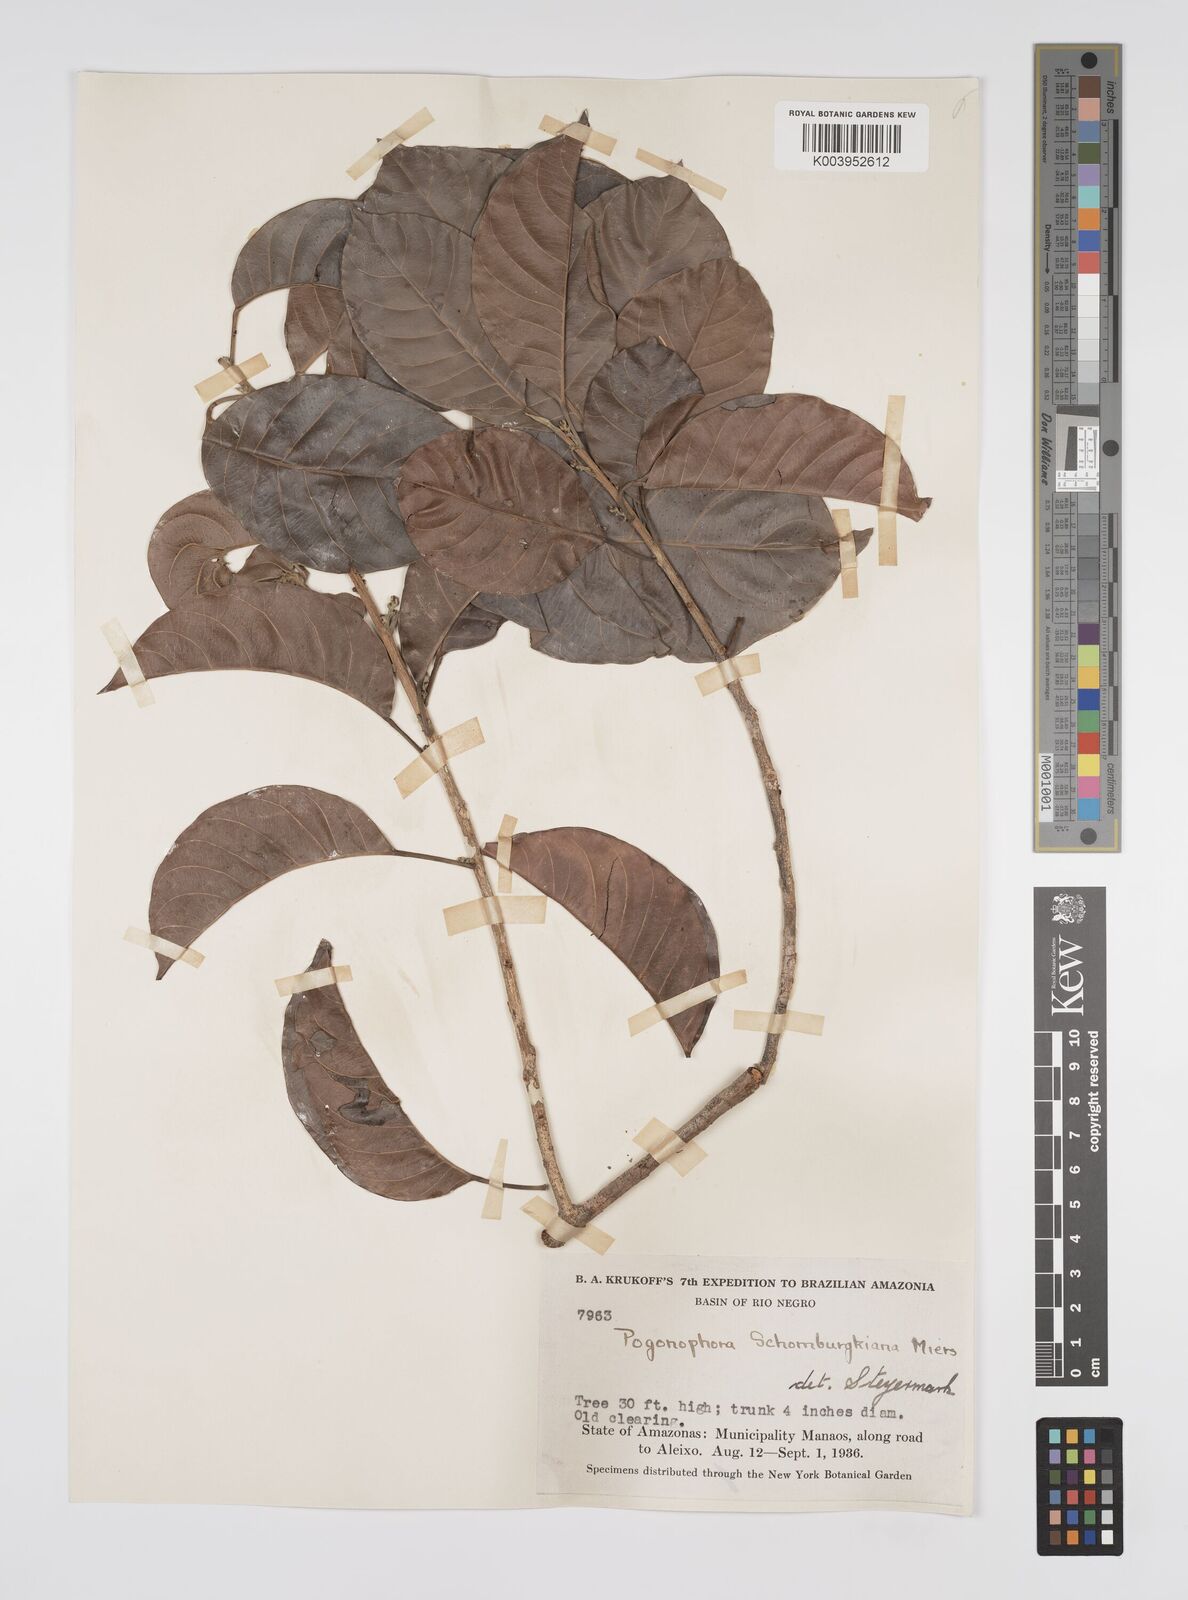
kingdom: Plantae
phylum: Tracheophyta
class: Magnoliopsida
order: Malpighiales
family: Peraceae
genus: Pogonophora
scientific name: Pogonophora schomburgkiana
